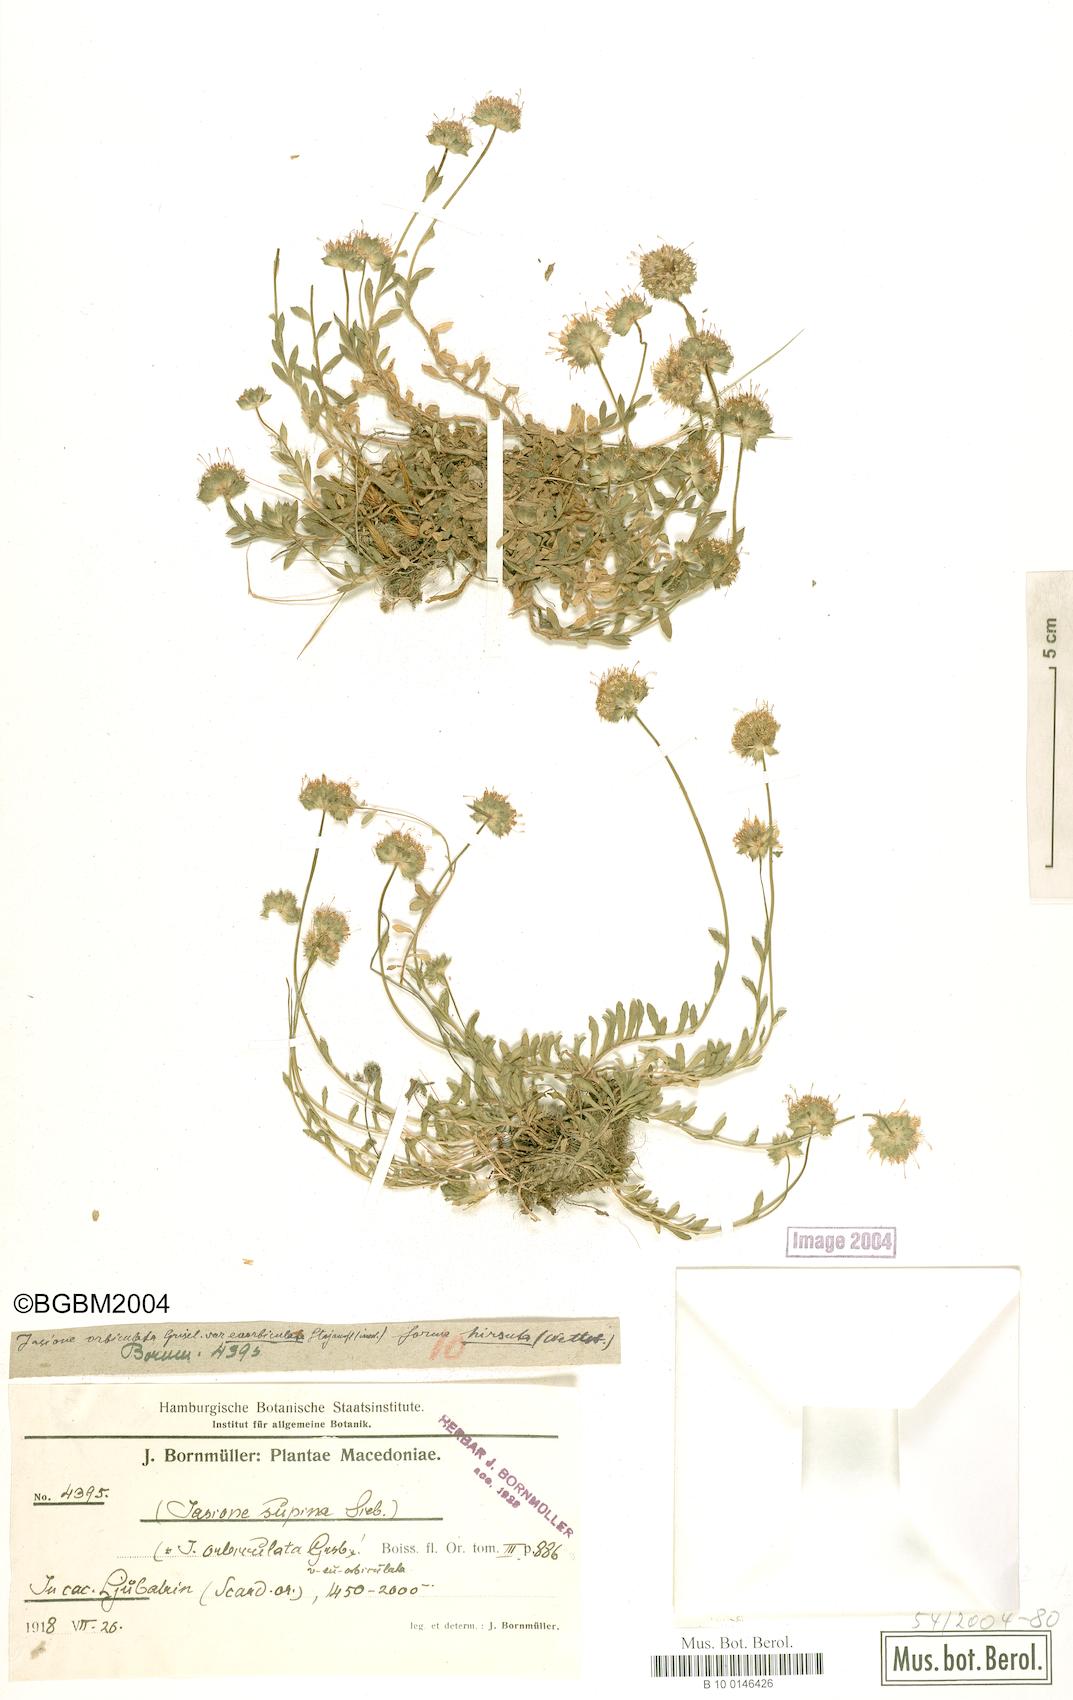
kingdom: Plantae
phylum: Tracheophyta
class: Magnoliopsida
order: Asterales
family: Campanulaceae
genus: Jasione
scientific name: Jasione orbiculata
